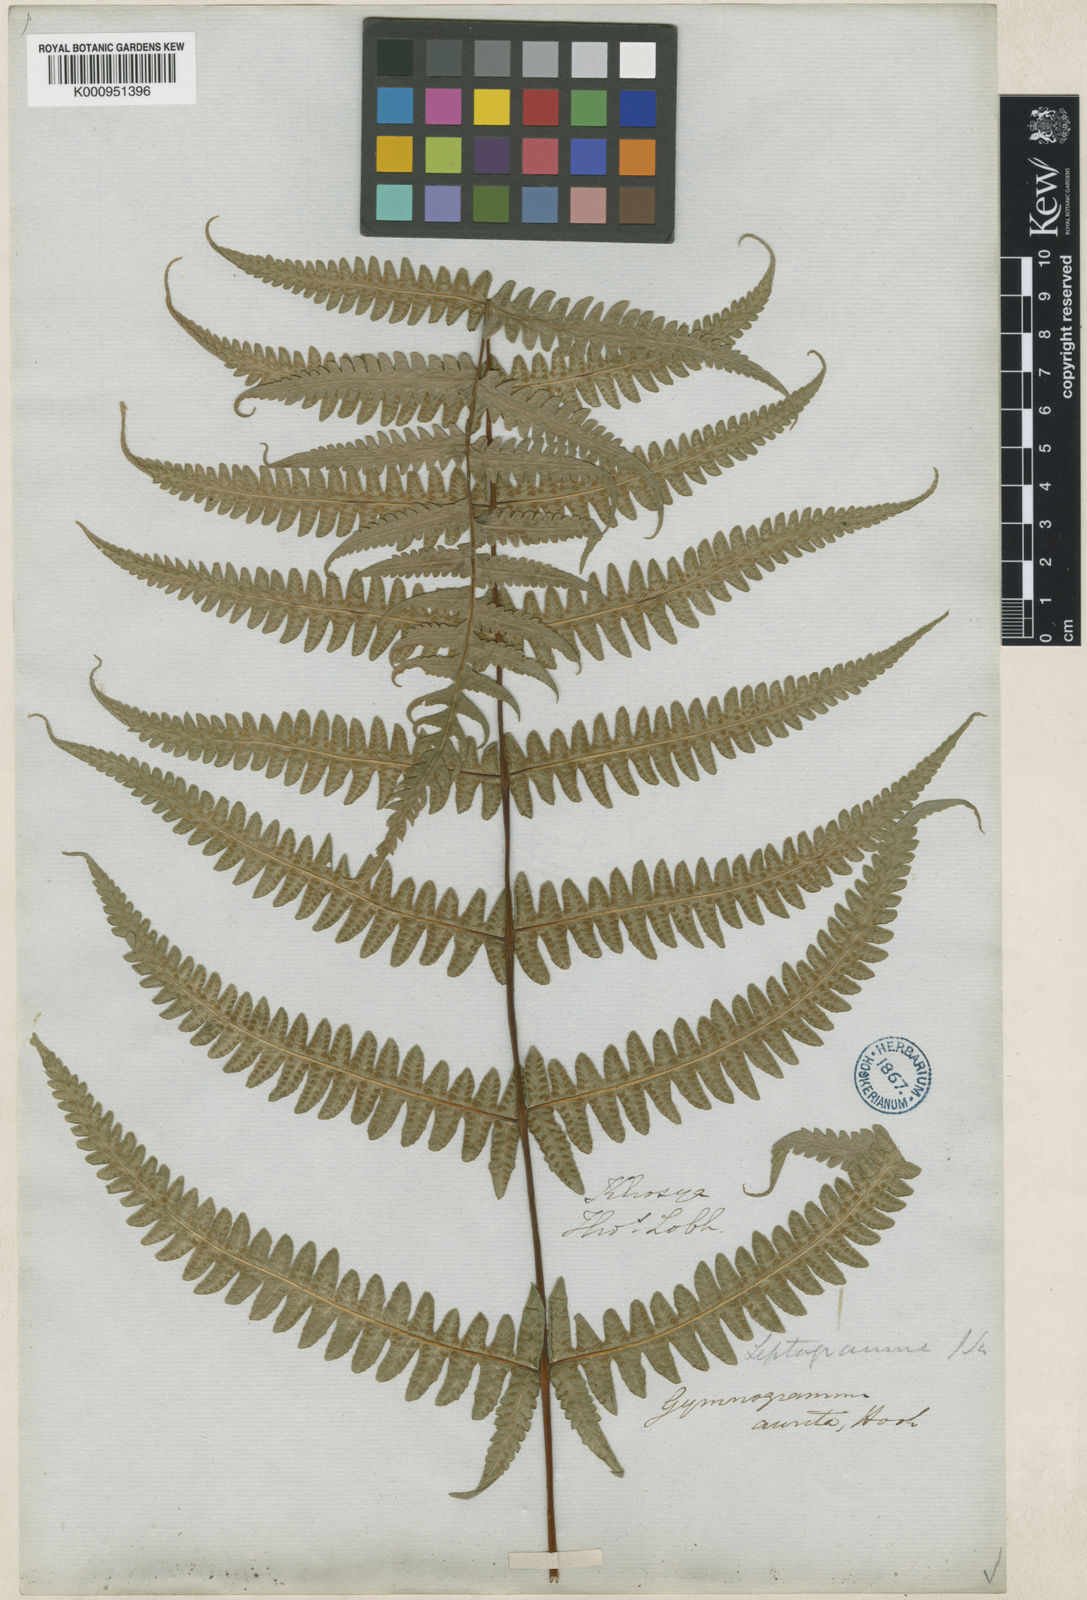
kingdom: Plantae
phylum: Tracheophyta
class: Polypodiopsida
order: Polypodiales
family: Thelypteridaceae
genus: Pseudophegopteris
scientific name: Pseudophegopteris aurita
